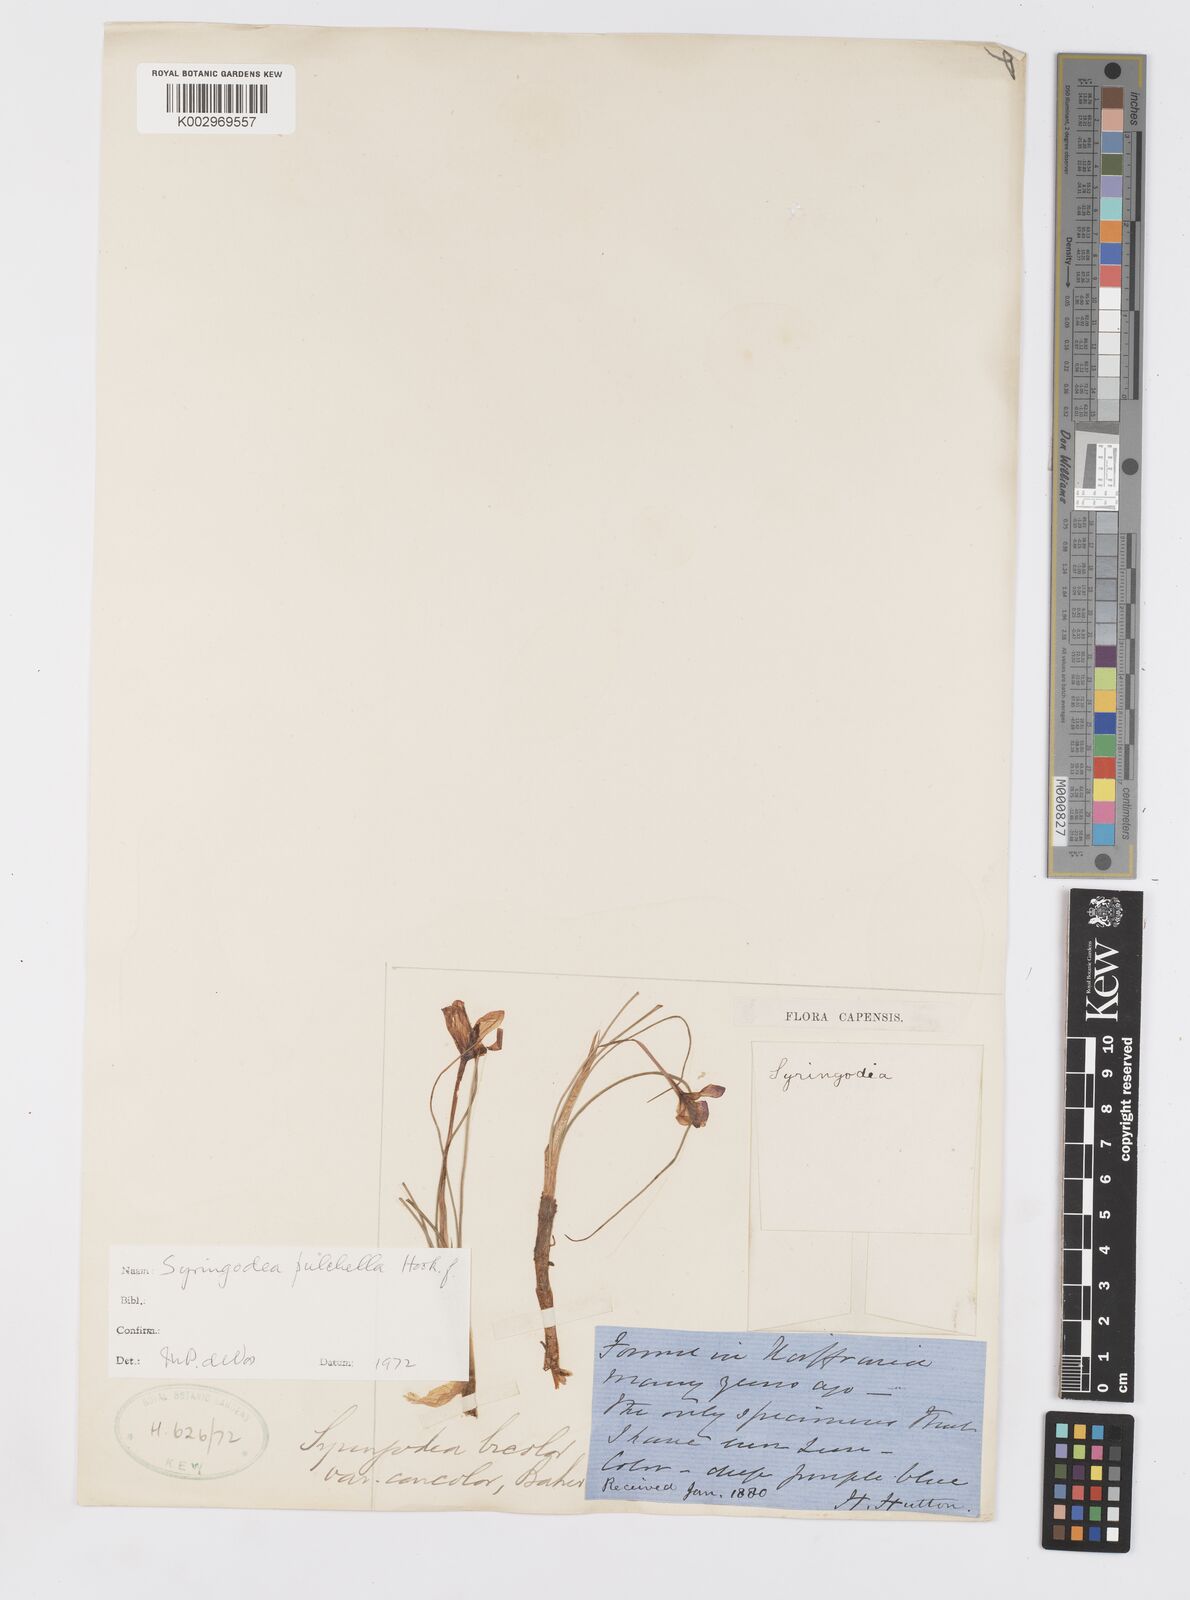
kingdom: Plantae
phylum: Tracheophyta
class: Liliopsida
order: Asparagales
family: Iridaceae
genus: Syringodea
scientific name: Syringodea pulchella
